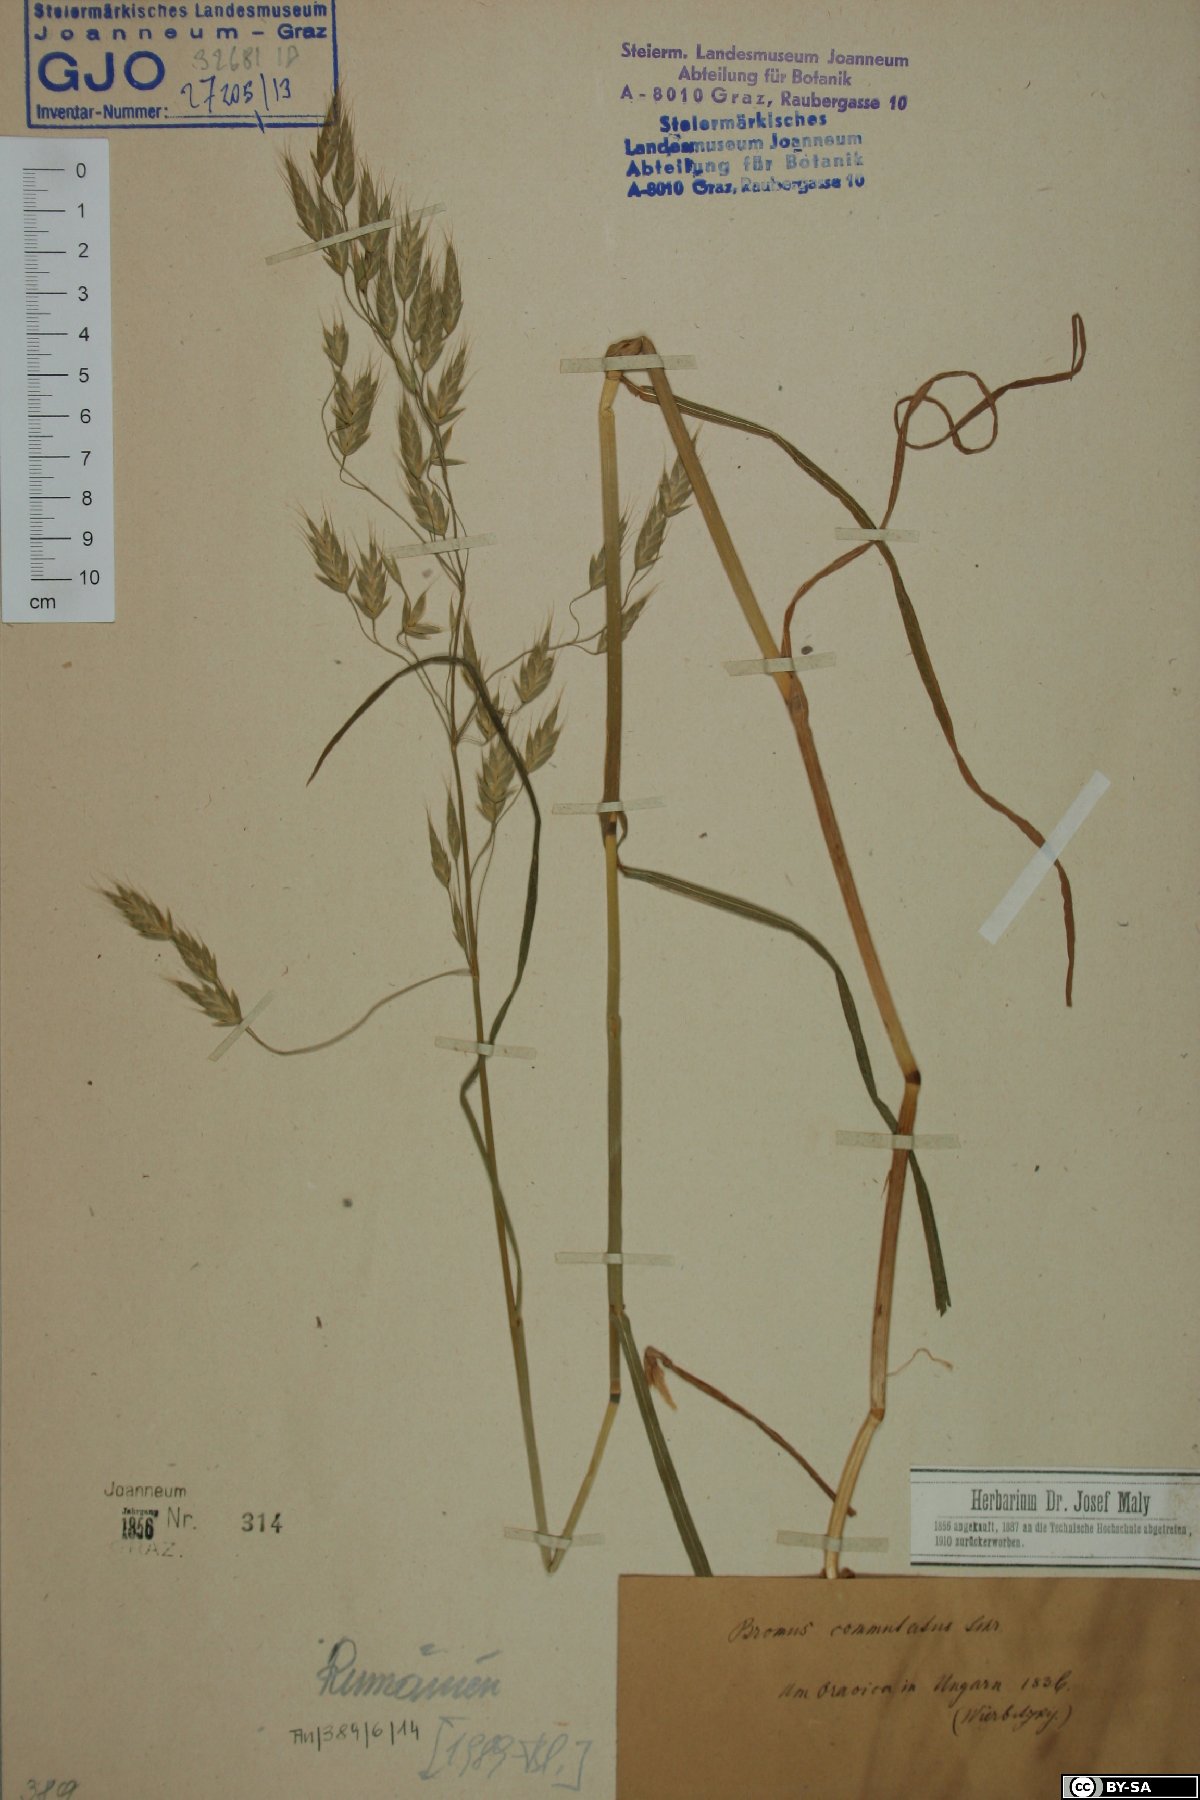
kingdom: Plantae
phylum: Tracheophyta
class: Liliopsida
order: Poales
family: Poaceae
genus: Bromus
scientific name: Bromus commutatus
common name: Meadow brome
